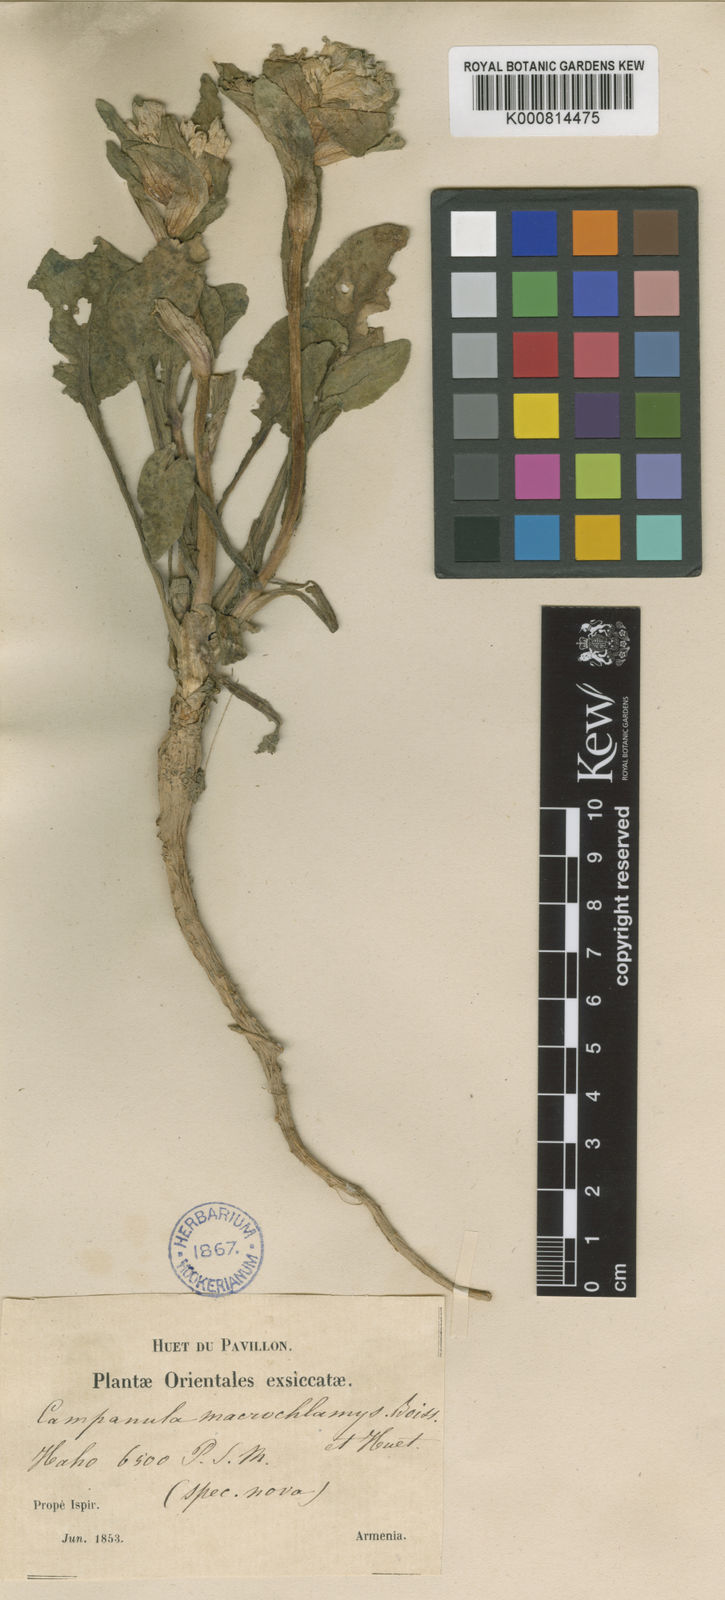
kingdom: Plantae
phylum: Tracheophyta
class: Magnoliopsida
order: Asterales
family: Campanulaceae
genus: Campanula
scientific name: Campanula macrochlamys
